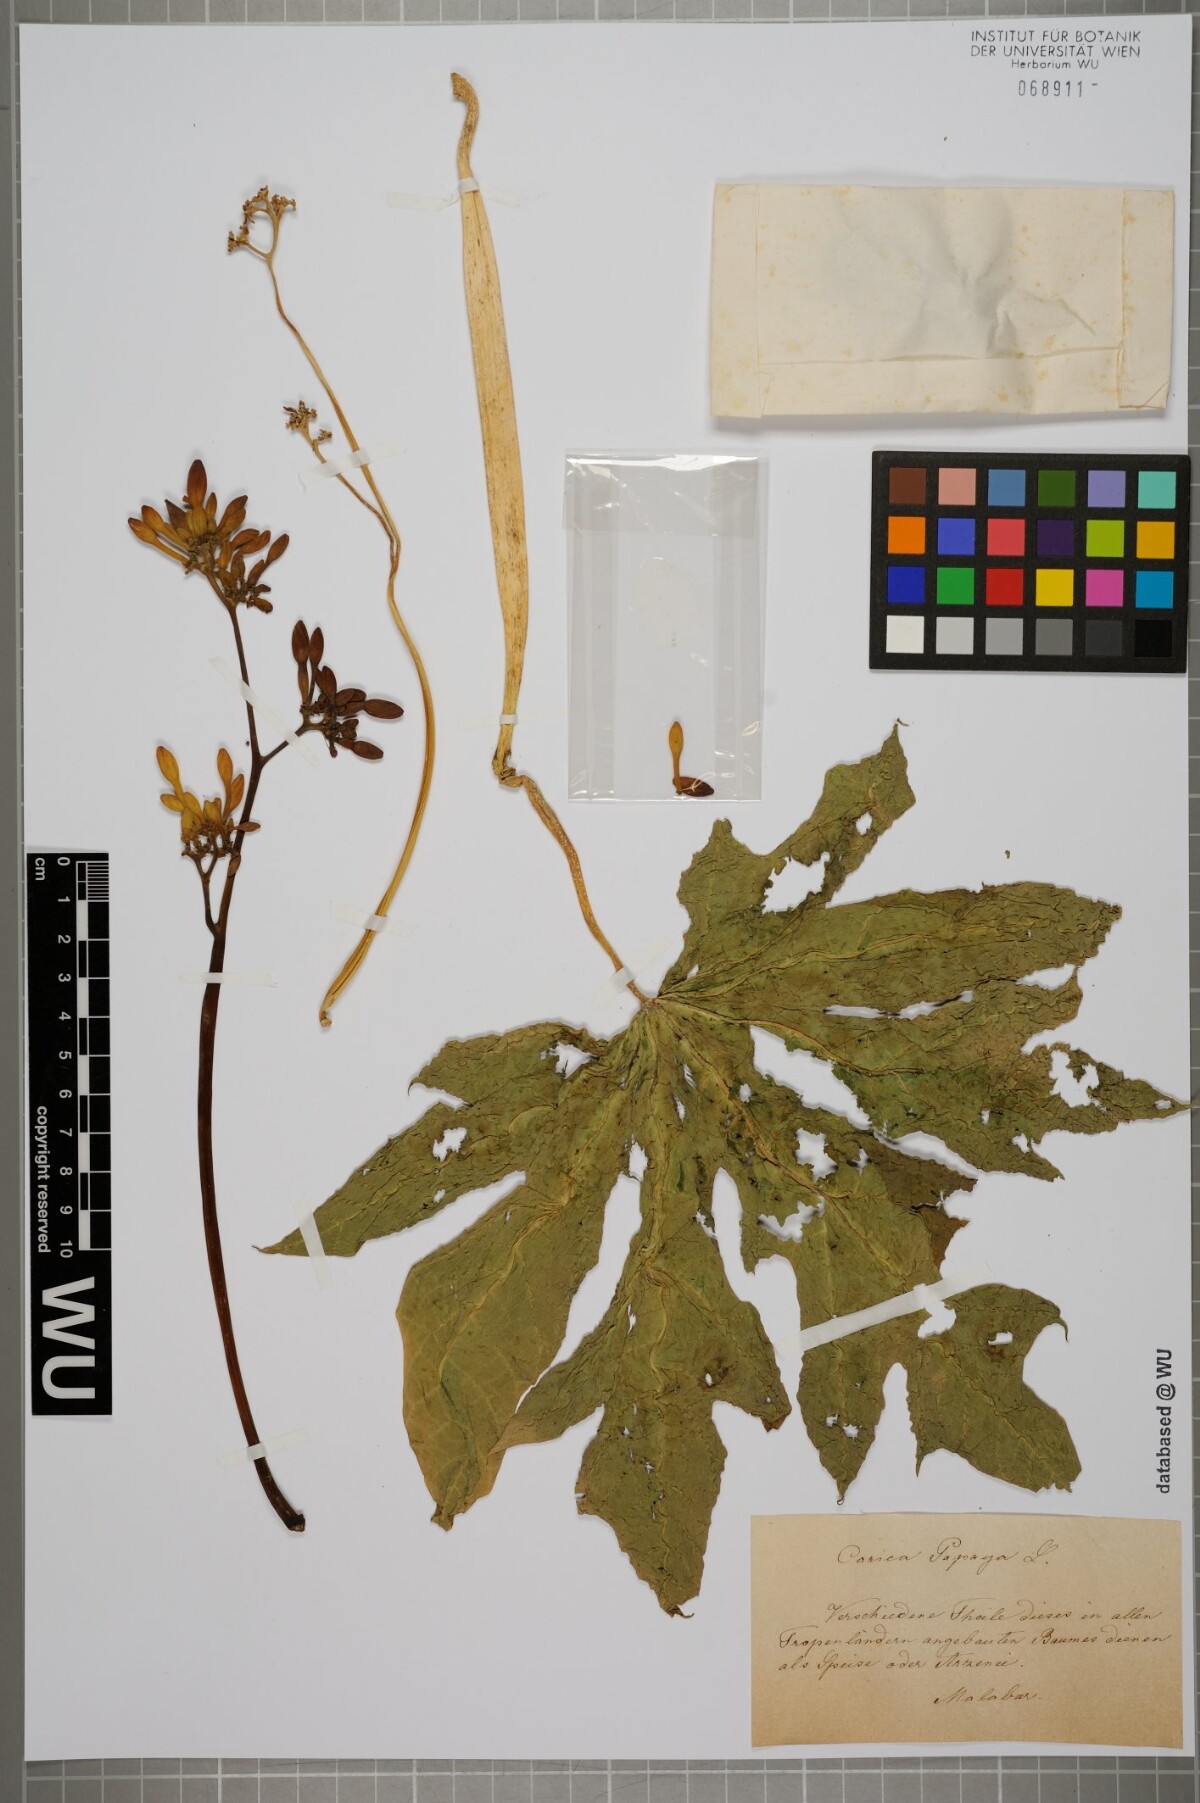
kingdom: Plantae
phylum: Tracheophyta
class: Magnoliopsida
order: Brassicales
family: Caricaceae
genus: Carica
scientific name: Carica papaya
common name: Papaya
